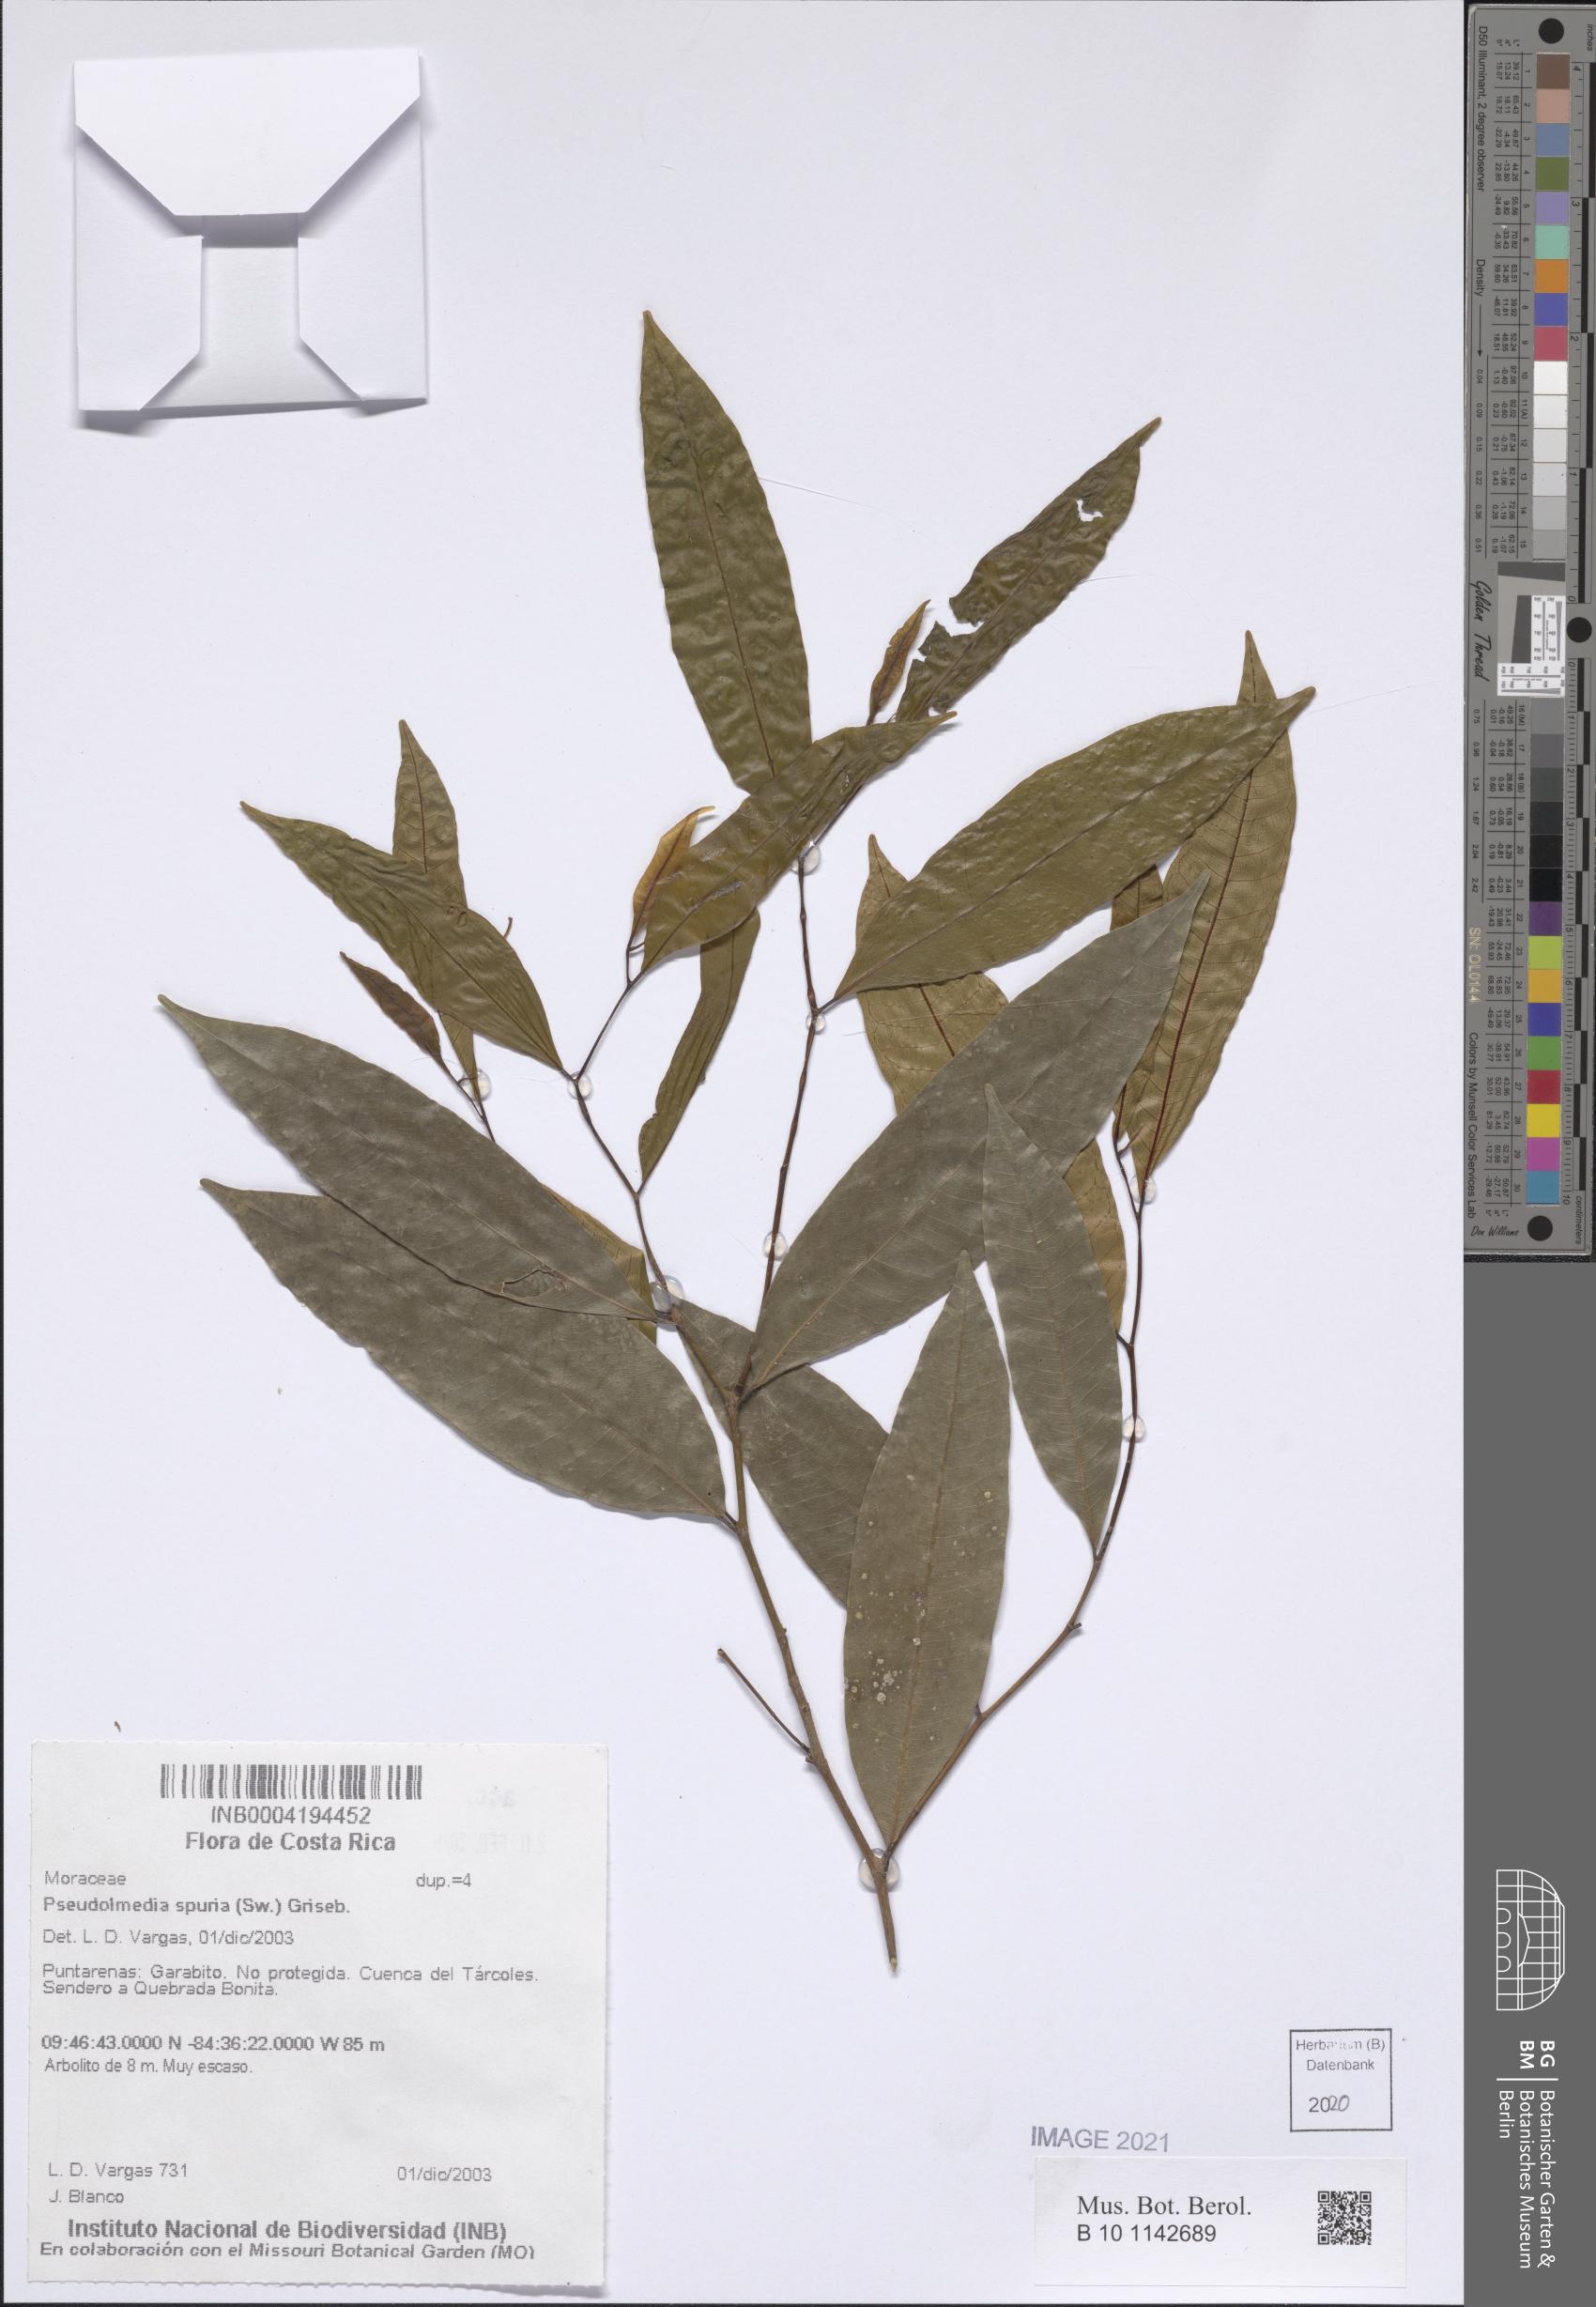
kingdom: Plantae
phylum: Tracheophyta
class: Magnoliopsida
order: Rosales
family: Moraceae
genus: Pseudolmedia
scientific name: Pseudolmedia spuria
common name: Bastard-cherry
